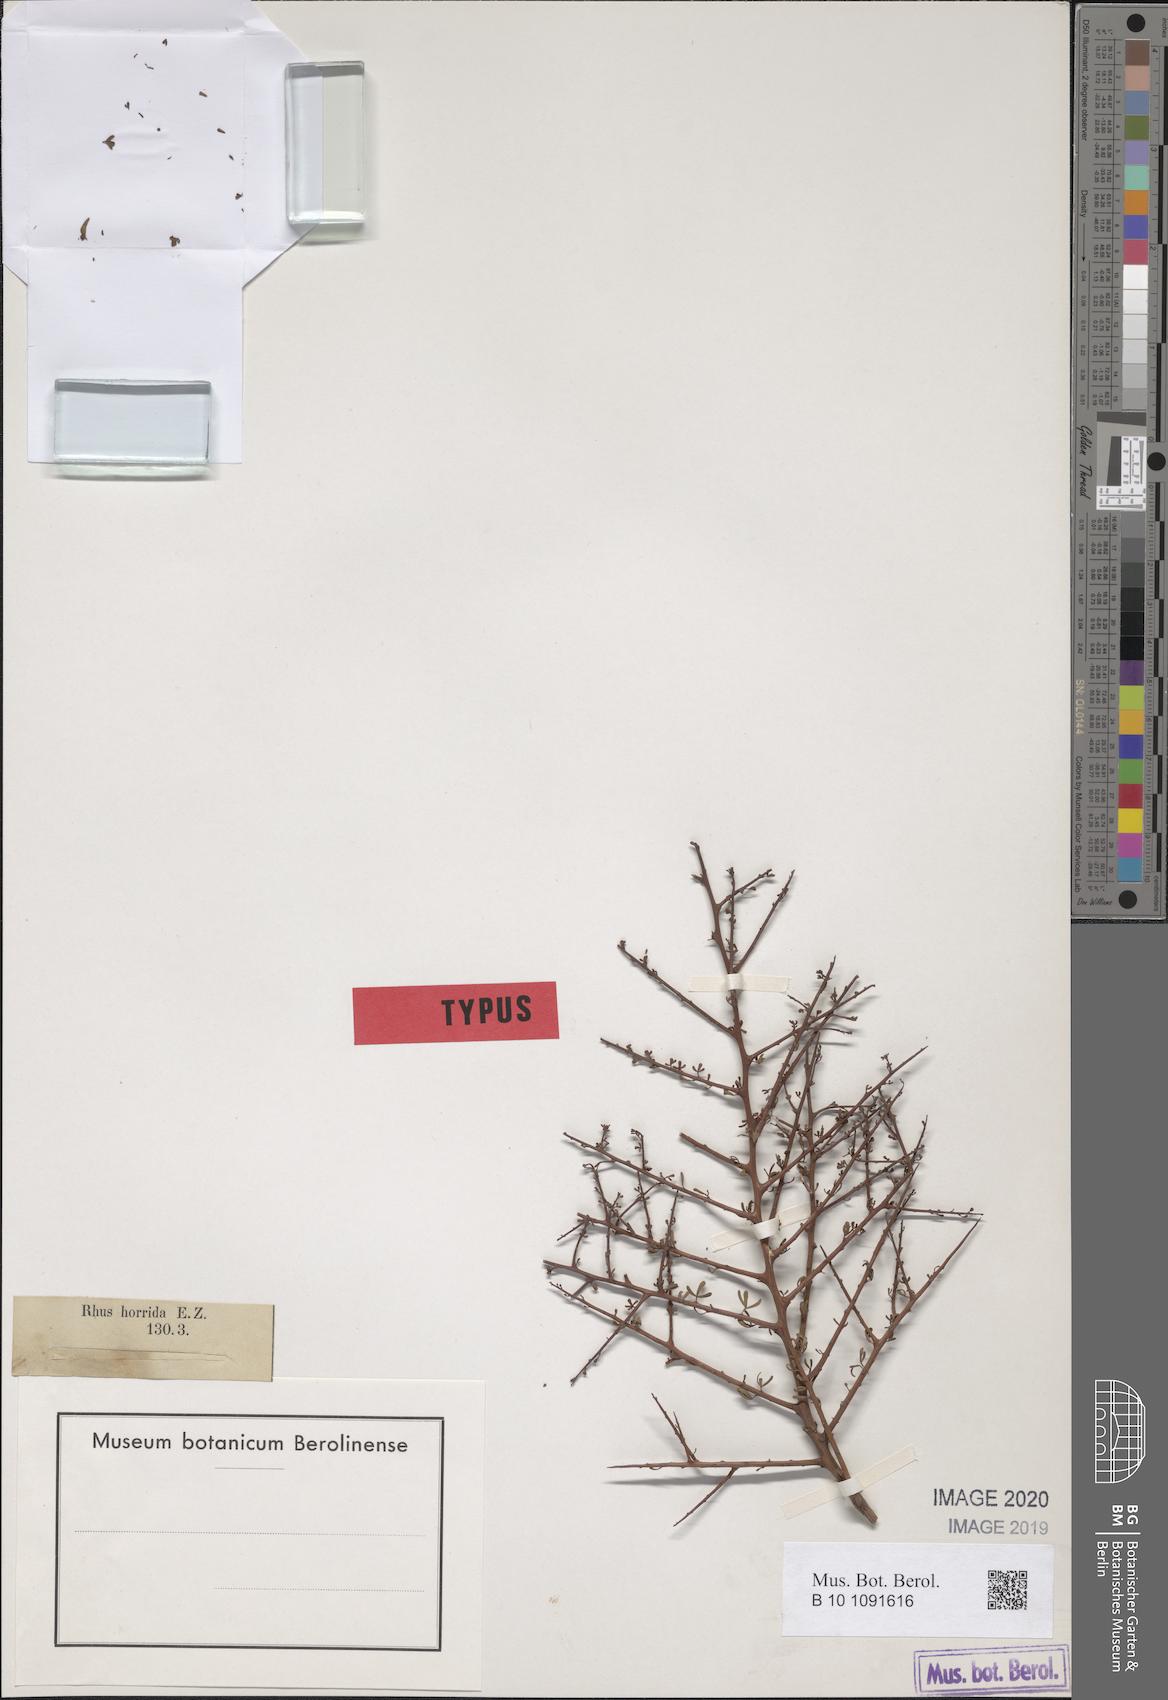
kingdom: Plantae
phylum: Tracheophyta
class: Magnoliopsida
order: Sapindales
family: Anacardiaceae
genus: Searsia
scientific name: Searsia horrida
